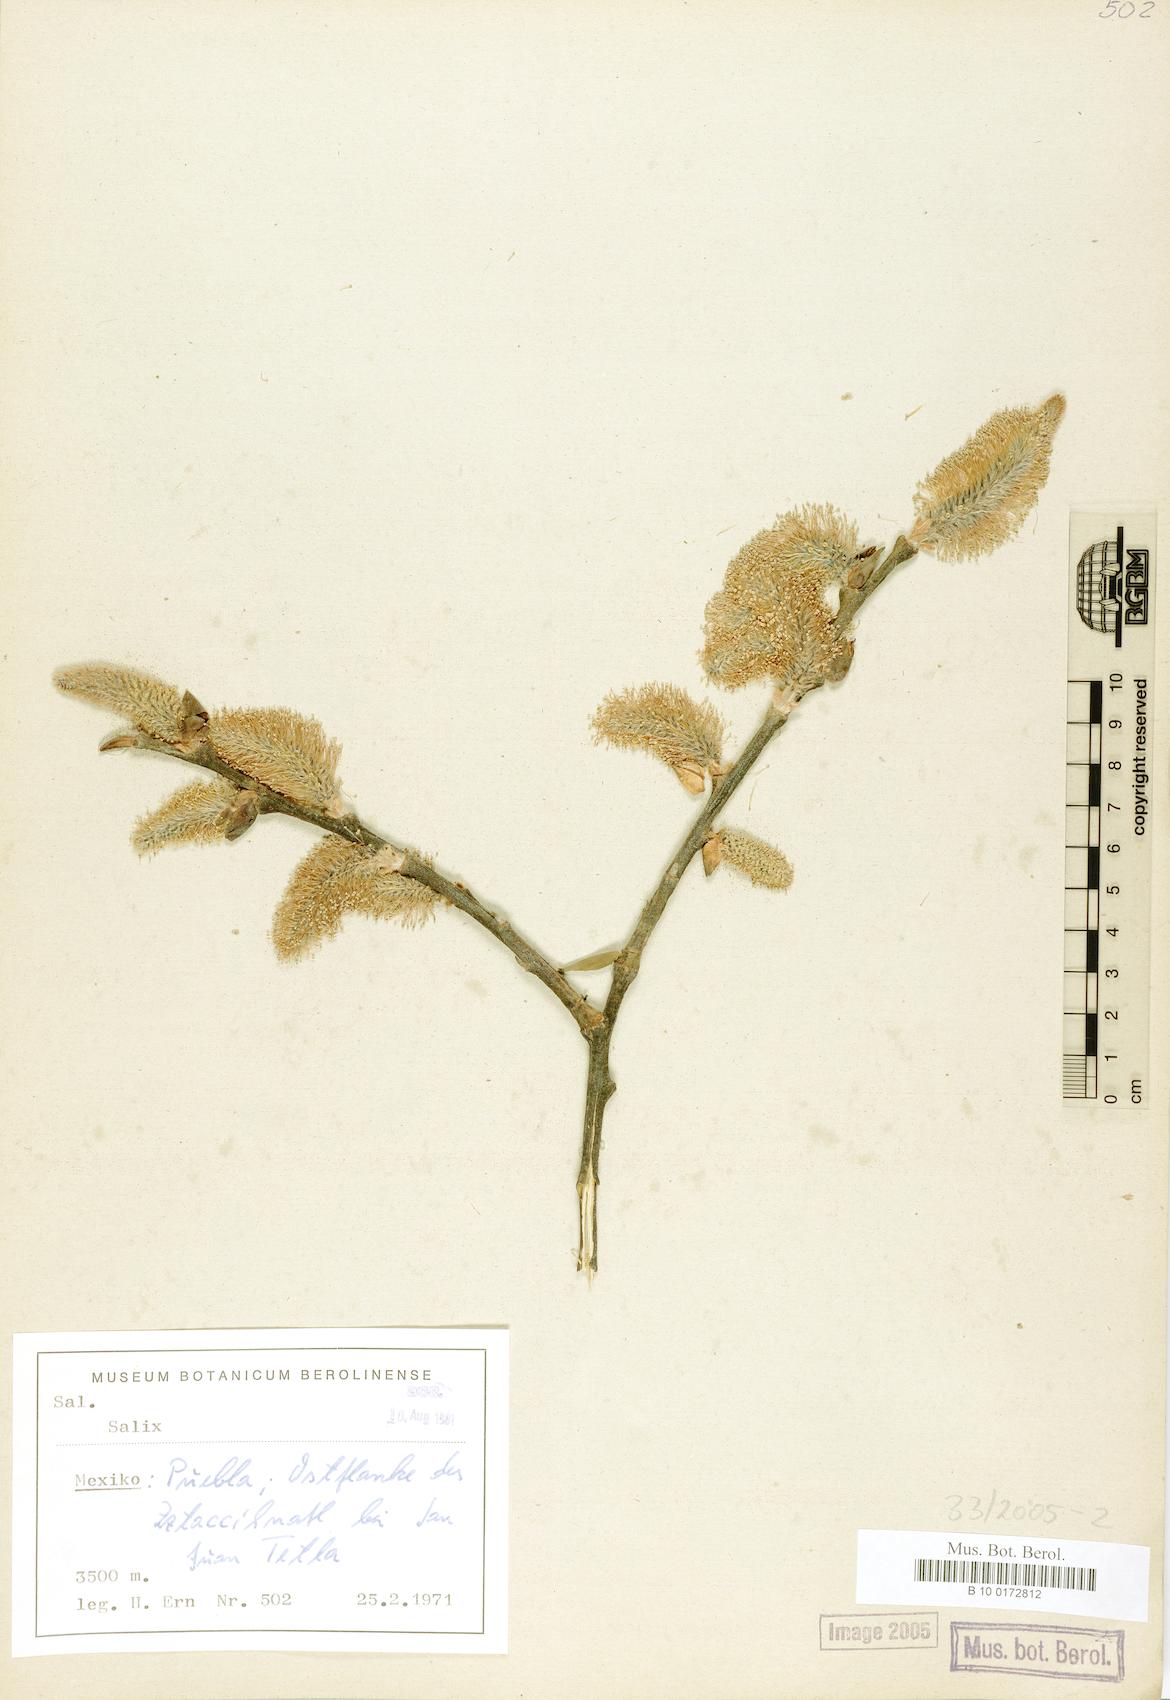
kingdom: Plantae
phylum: Tracheophyta
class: Magnoliopsida
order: Malpighiales
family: Salicaceae
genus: Salix
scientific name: Salix
